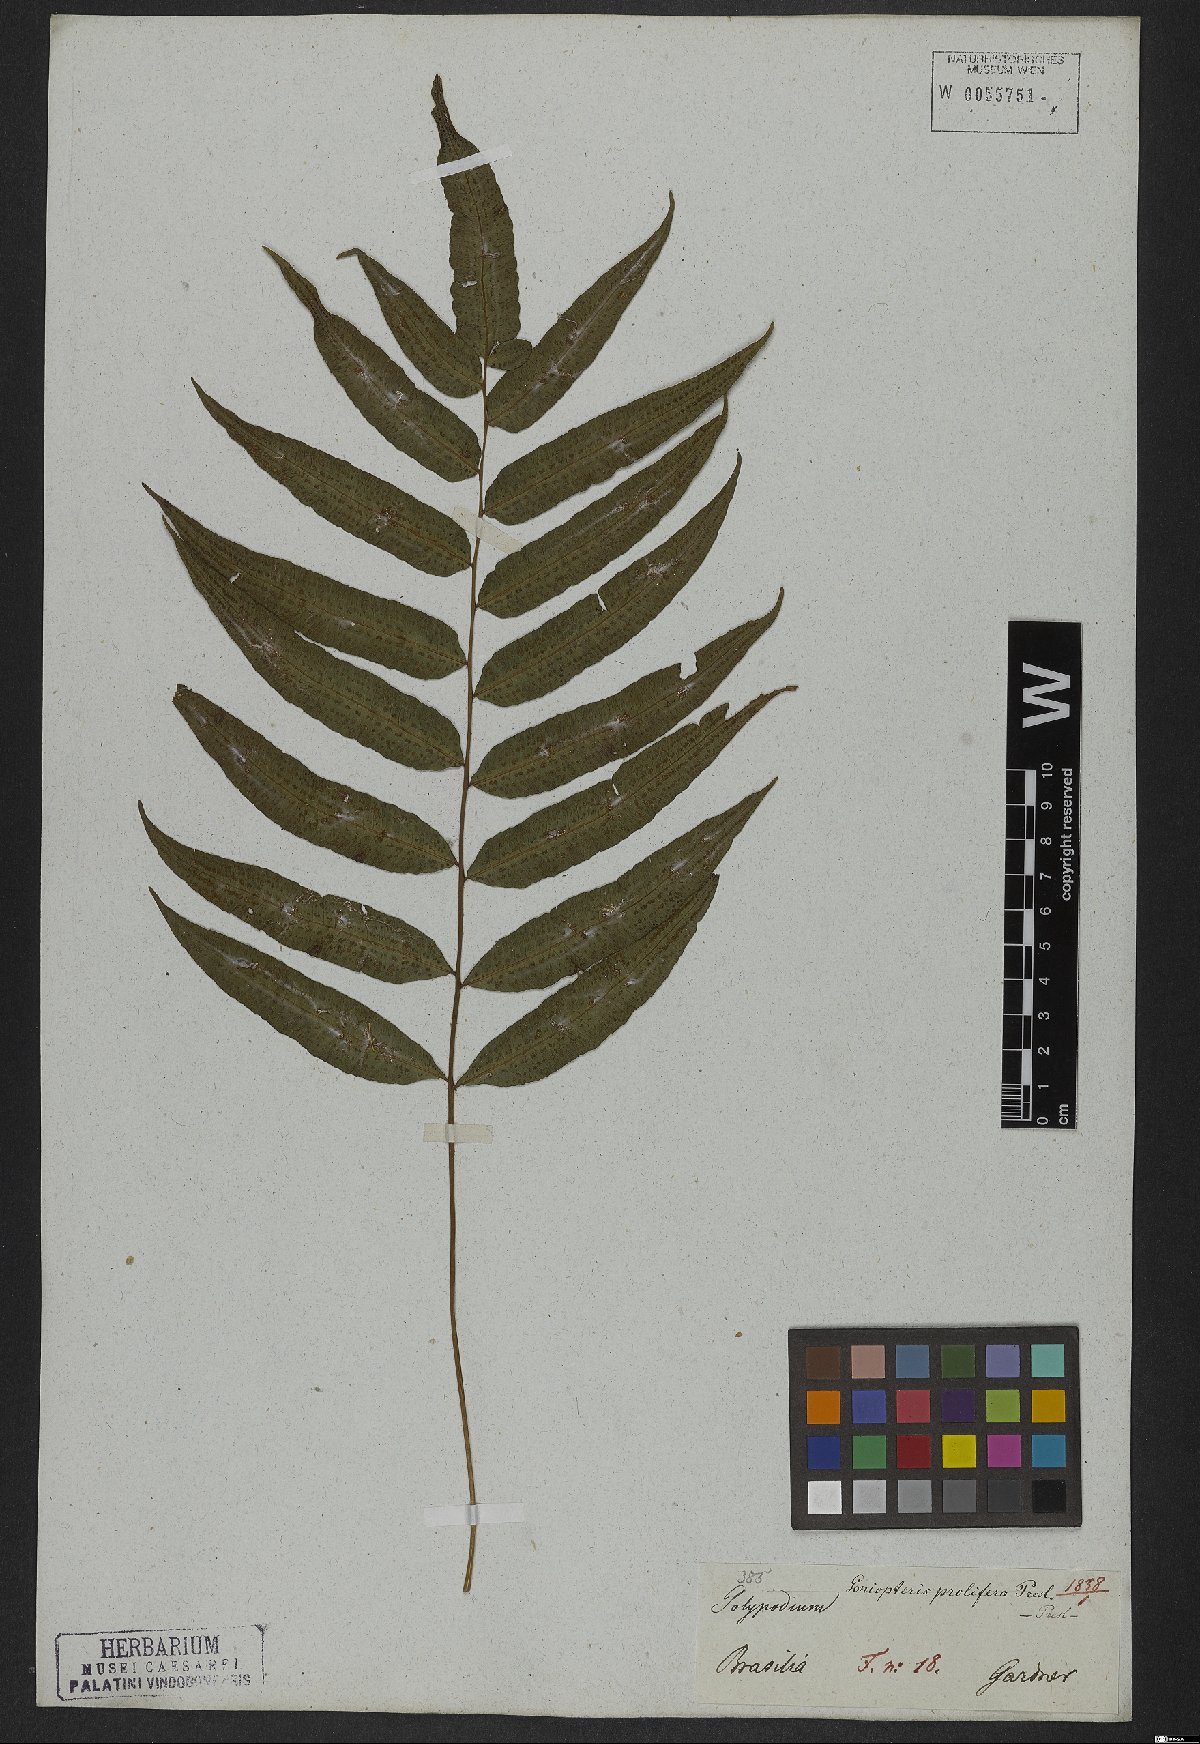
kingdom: Plantae
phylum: Tracheophyta
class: Polypodiopsida
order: Polypodiales
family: Thelypteridaceae
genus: Goniopteris
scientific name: Goniopteris vivipara
